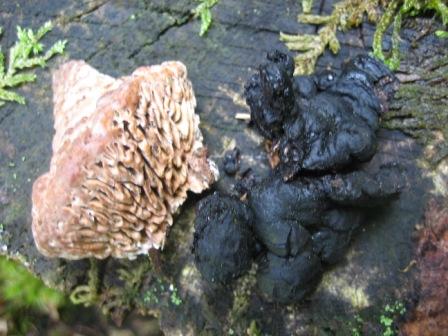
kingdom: Fungi
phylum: Ascomycota
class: Sordariomycetes
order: Xylariales
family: Xylariaceae
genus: Kretzschmaria
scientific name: Kretzschmaria deusta
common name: stor kulsvamp
